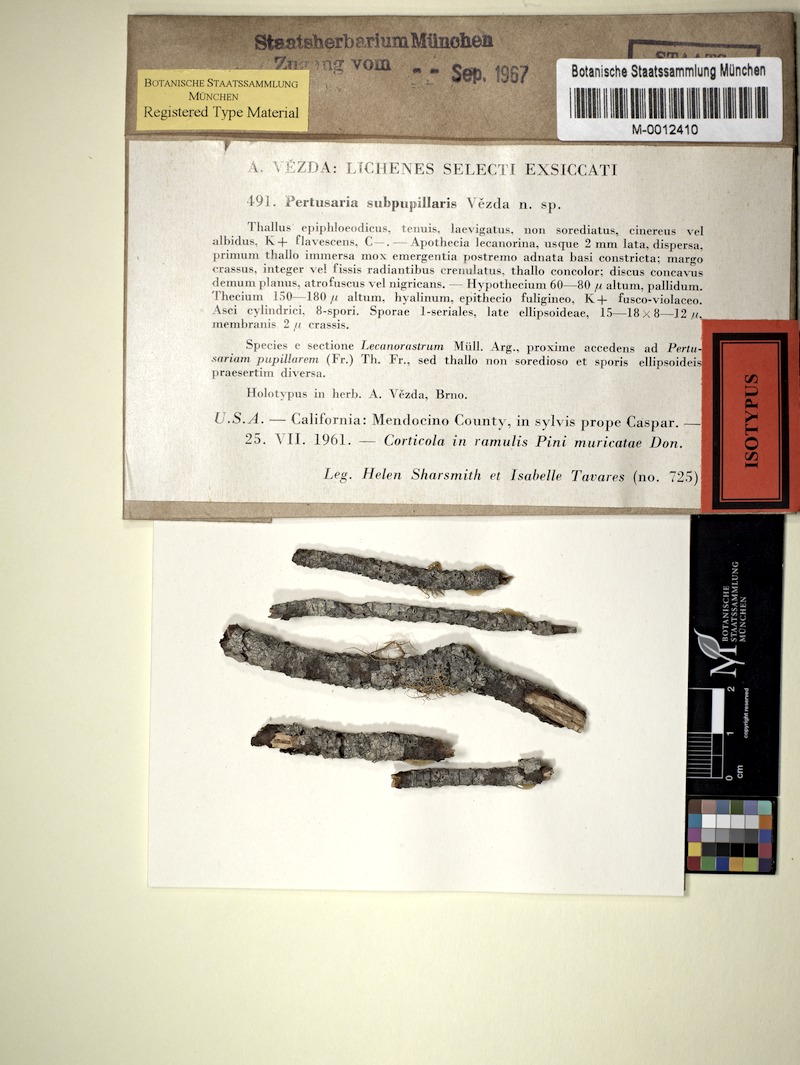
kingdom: Fungi
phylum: Ascomycota
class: Lecanoromycetes
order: Pertusariales
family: Pertusariaceae
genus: Pertusaria
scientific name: Pertusaria glaucomela
